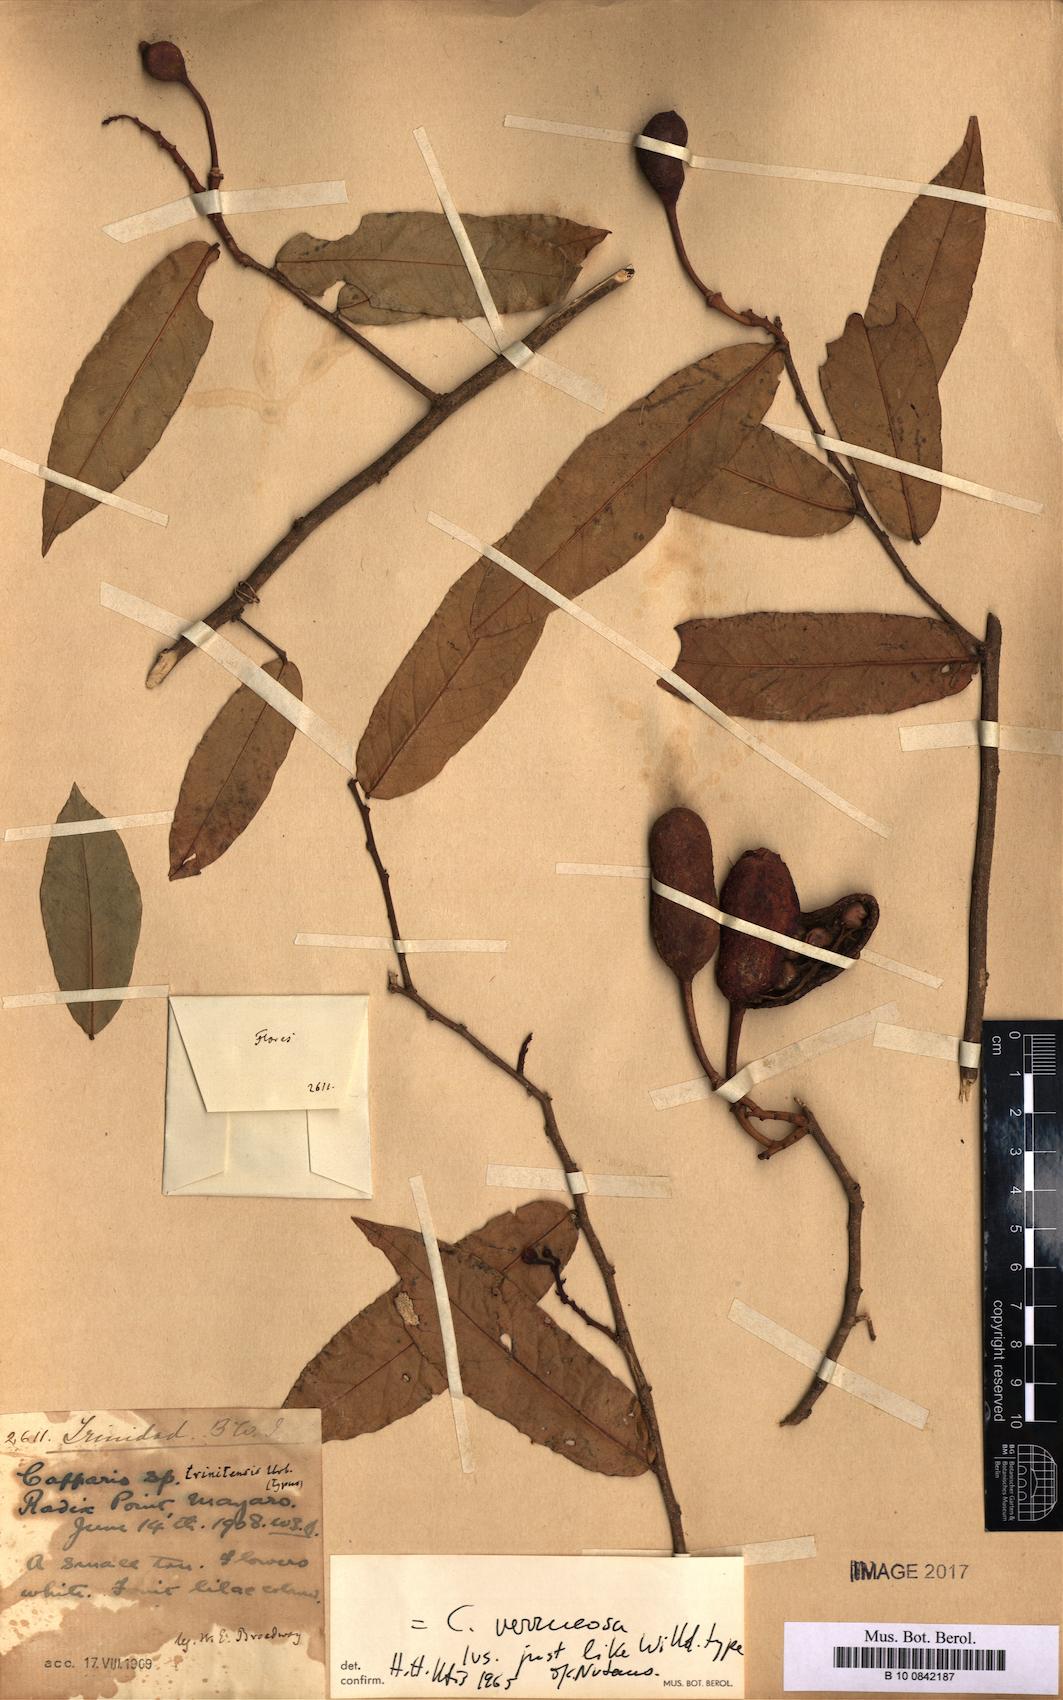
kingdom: Plantae
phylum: Tracheophyta
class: Magnoliopsida
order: Brassicales
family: Capparaceae
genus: Cynophalla
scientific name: Cynophalla verrucosa
